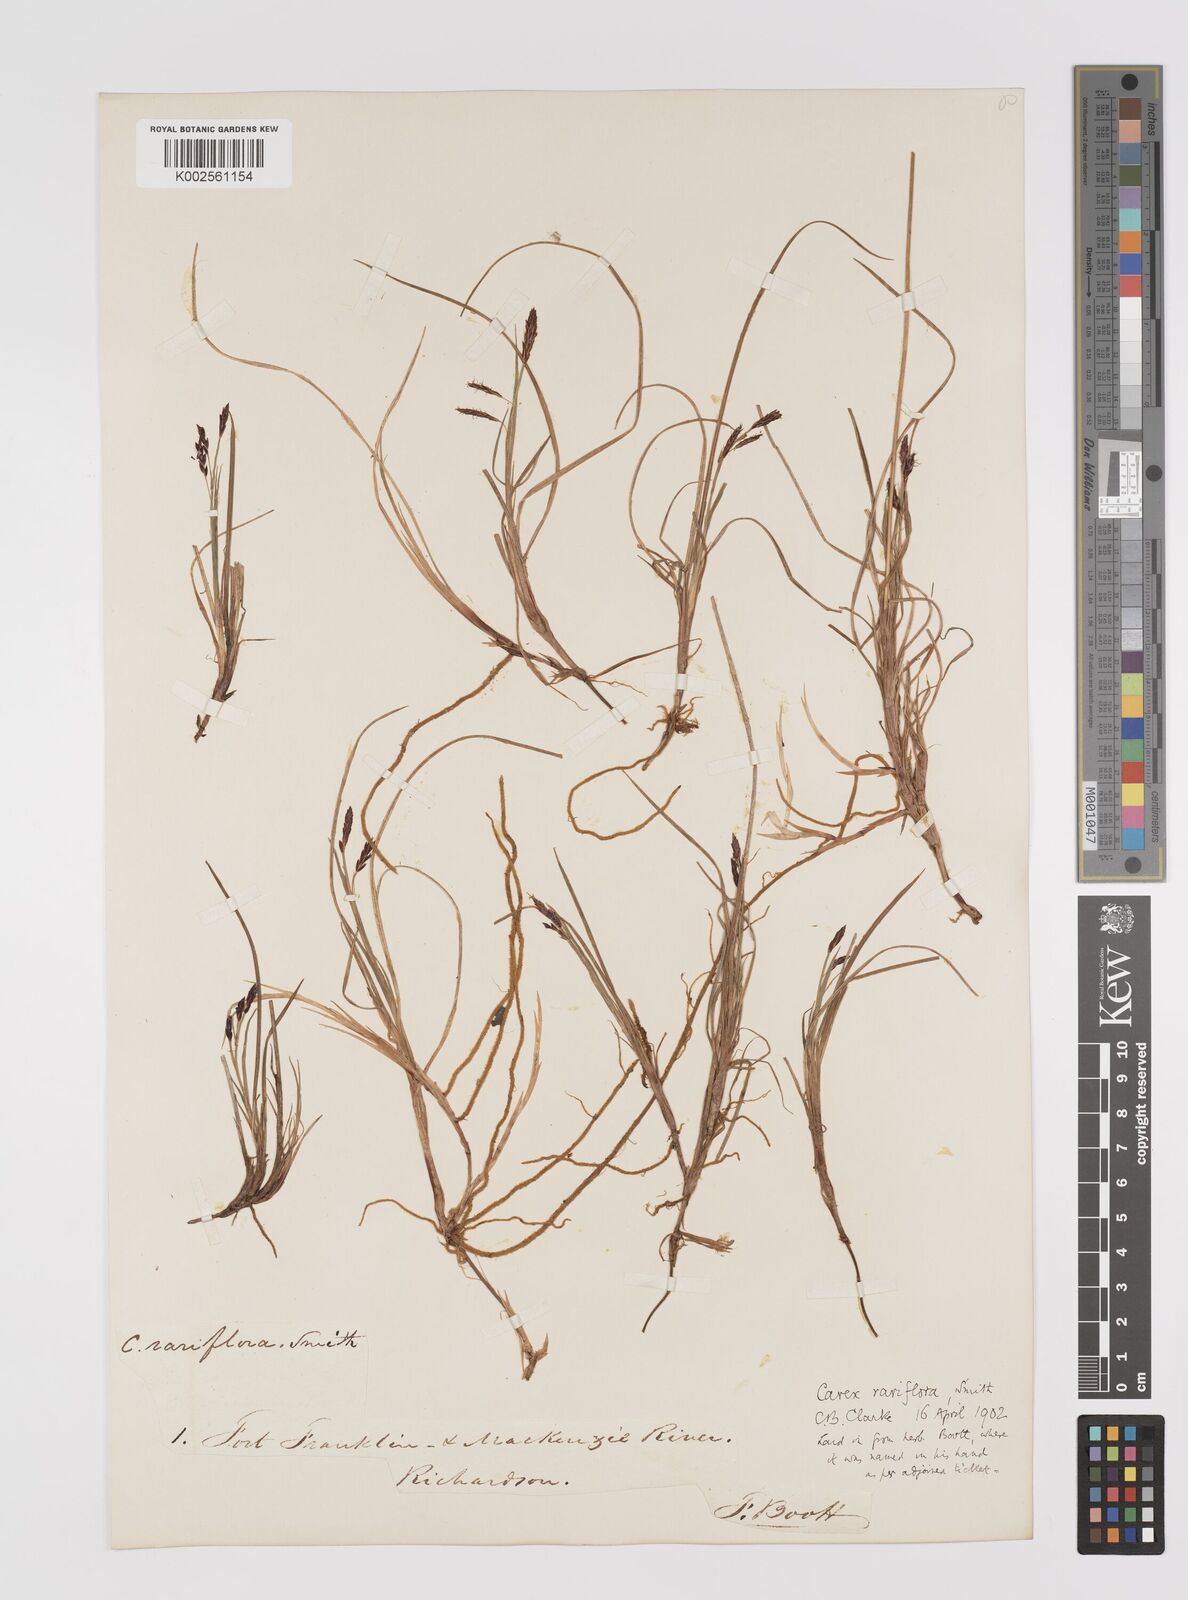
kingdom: Plantae
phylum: Tracheophyta
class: Liliopsida
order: Poales
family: Cyperaceae
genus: Carex
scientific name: Carex rariflora
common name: Loose-flowered alpine sedge
